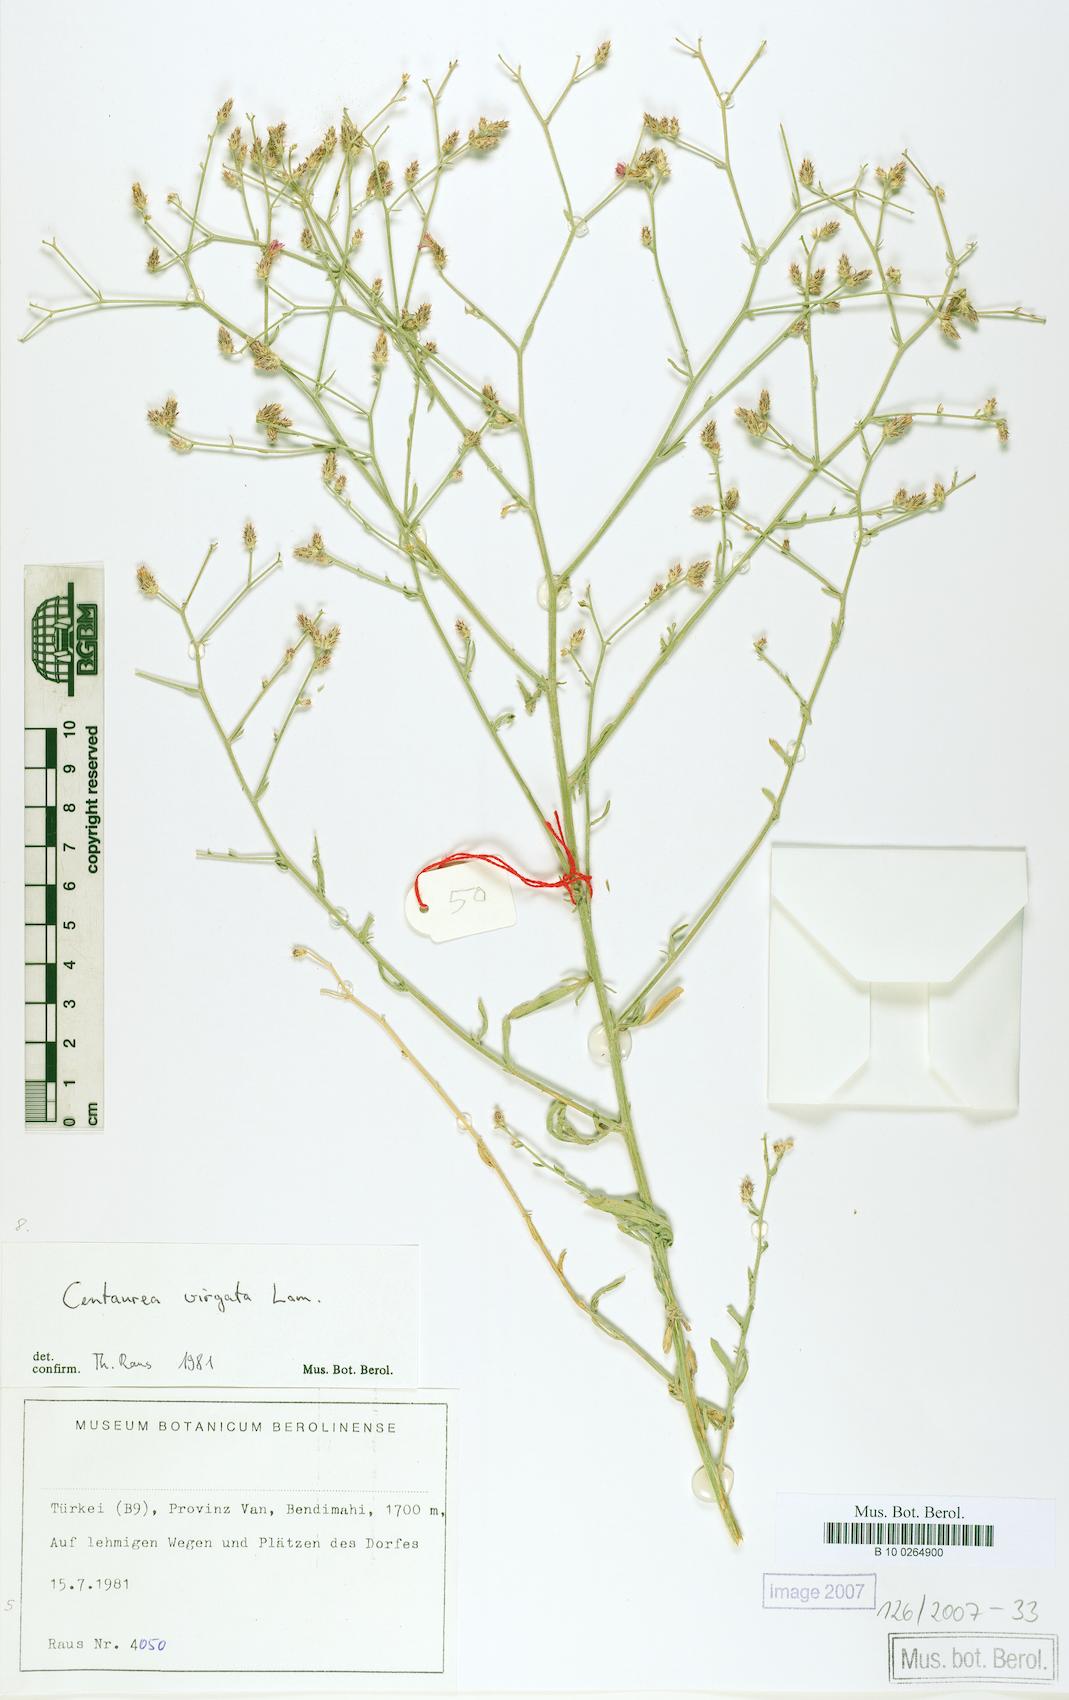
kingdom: Plantae
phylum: Tracheophyta
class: Magnoliopsida
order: Asterales
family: Asteraceae
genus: Centaurea
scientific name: Centaurea virgata
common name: Squarrose knapweed
